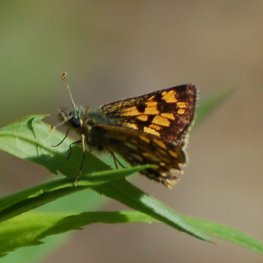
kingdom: Animalia
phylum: Arthropoda
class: Insecta
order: Lepidoptera
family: Hesperiidae
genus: Carterocephalus
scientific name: Carterocephalus palaemon
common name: Chequered Skipper
